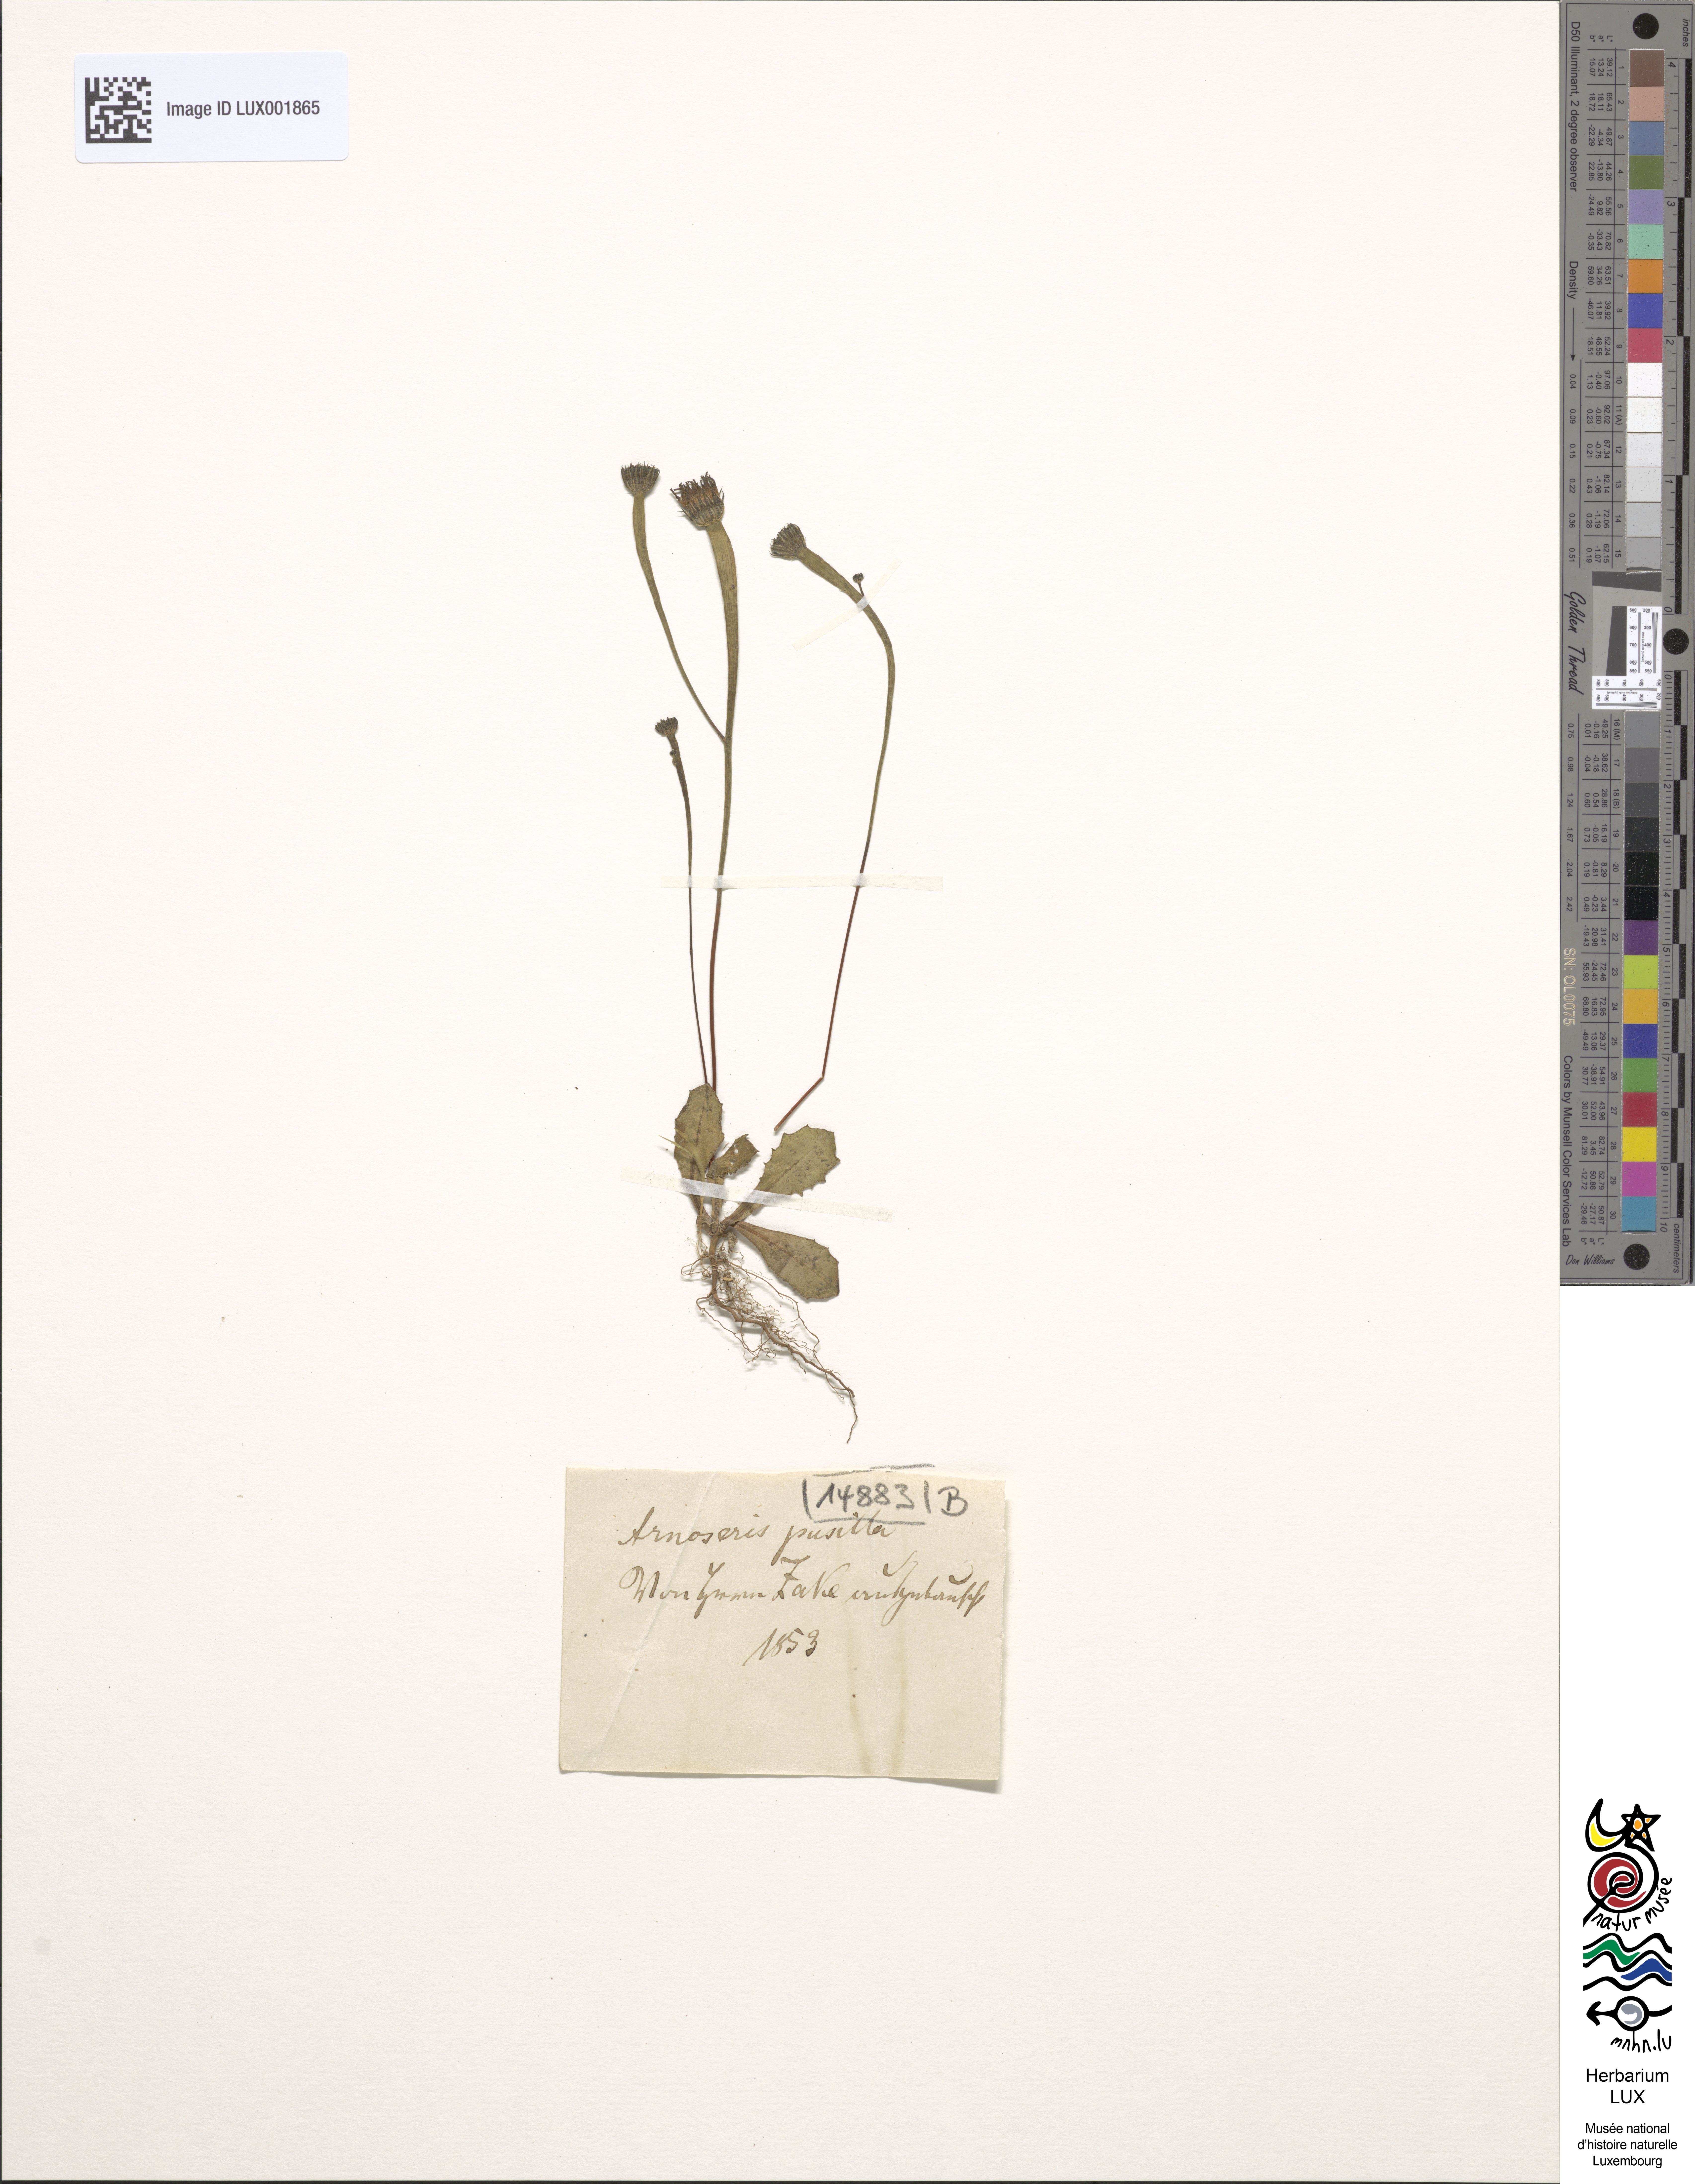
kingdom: Plantae
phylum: Tracheophyta
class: Magnoliopsida
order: Asterales
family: Asteraceae
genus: Arnoseris
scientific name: Arnoseris minima
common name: Lamb's succory
